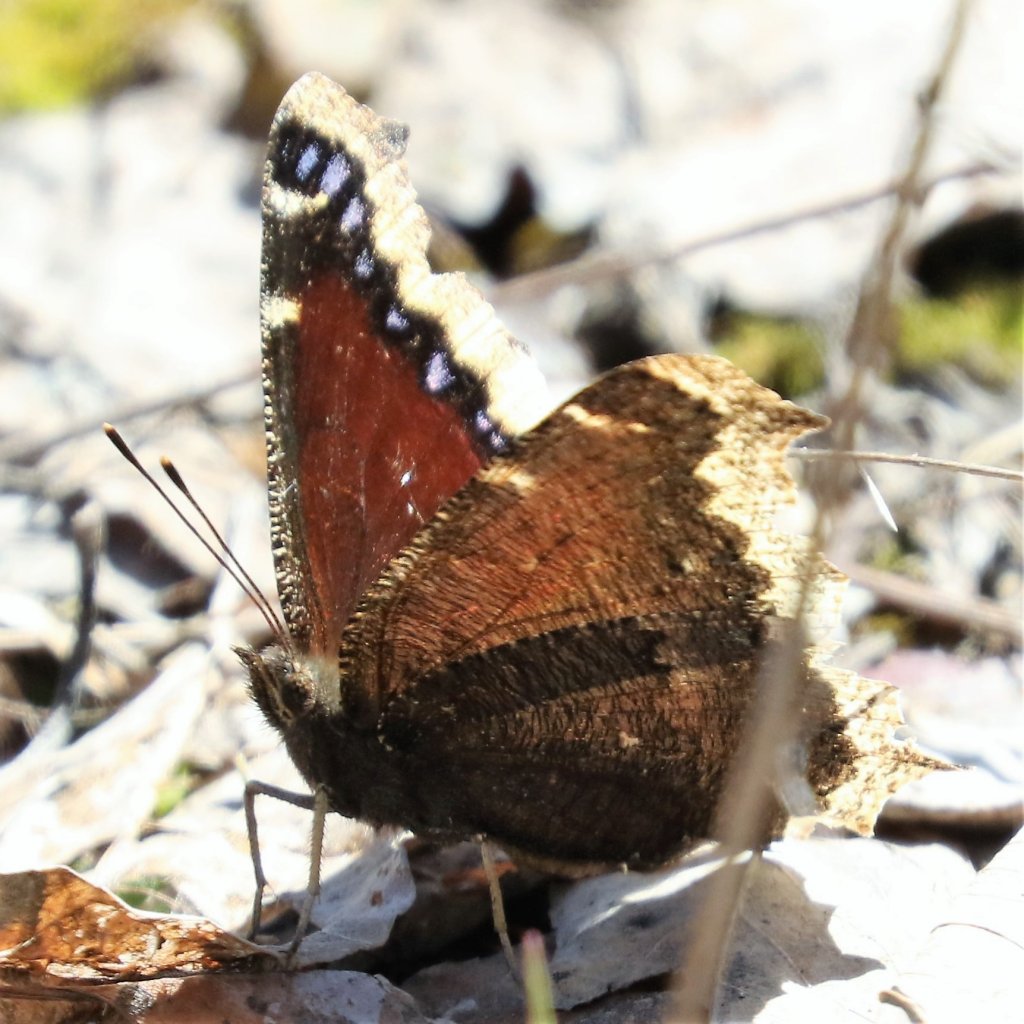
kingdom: Animalia
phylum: Arthropoda
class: Insecta
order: Lepidoptera
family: Nymphalidae
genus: Nymphalis
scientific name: Nymphalis antiopa
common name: Mourning Cloak
